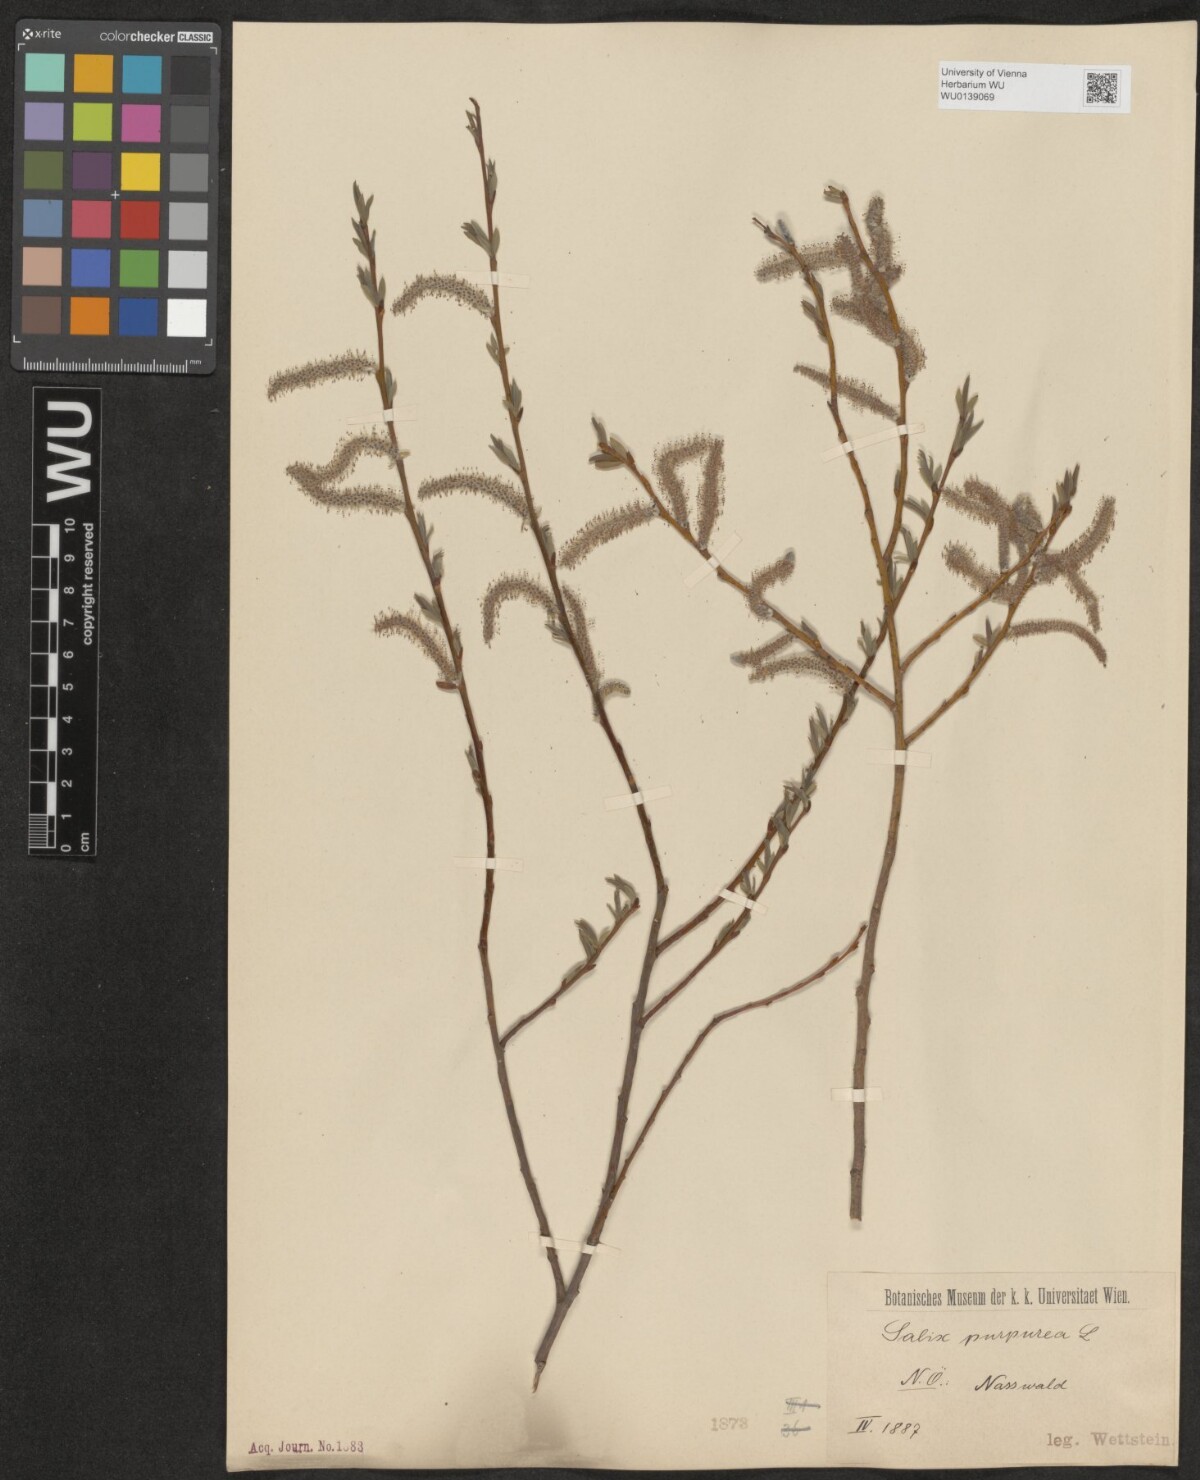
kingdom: Plantae
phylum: Tracheophyta
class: Magnoliopsida
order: Malpighiales
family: Salicaceae
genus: Salix
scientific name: Salix purpurea
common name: Purple willow
